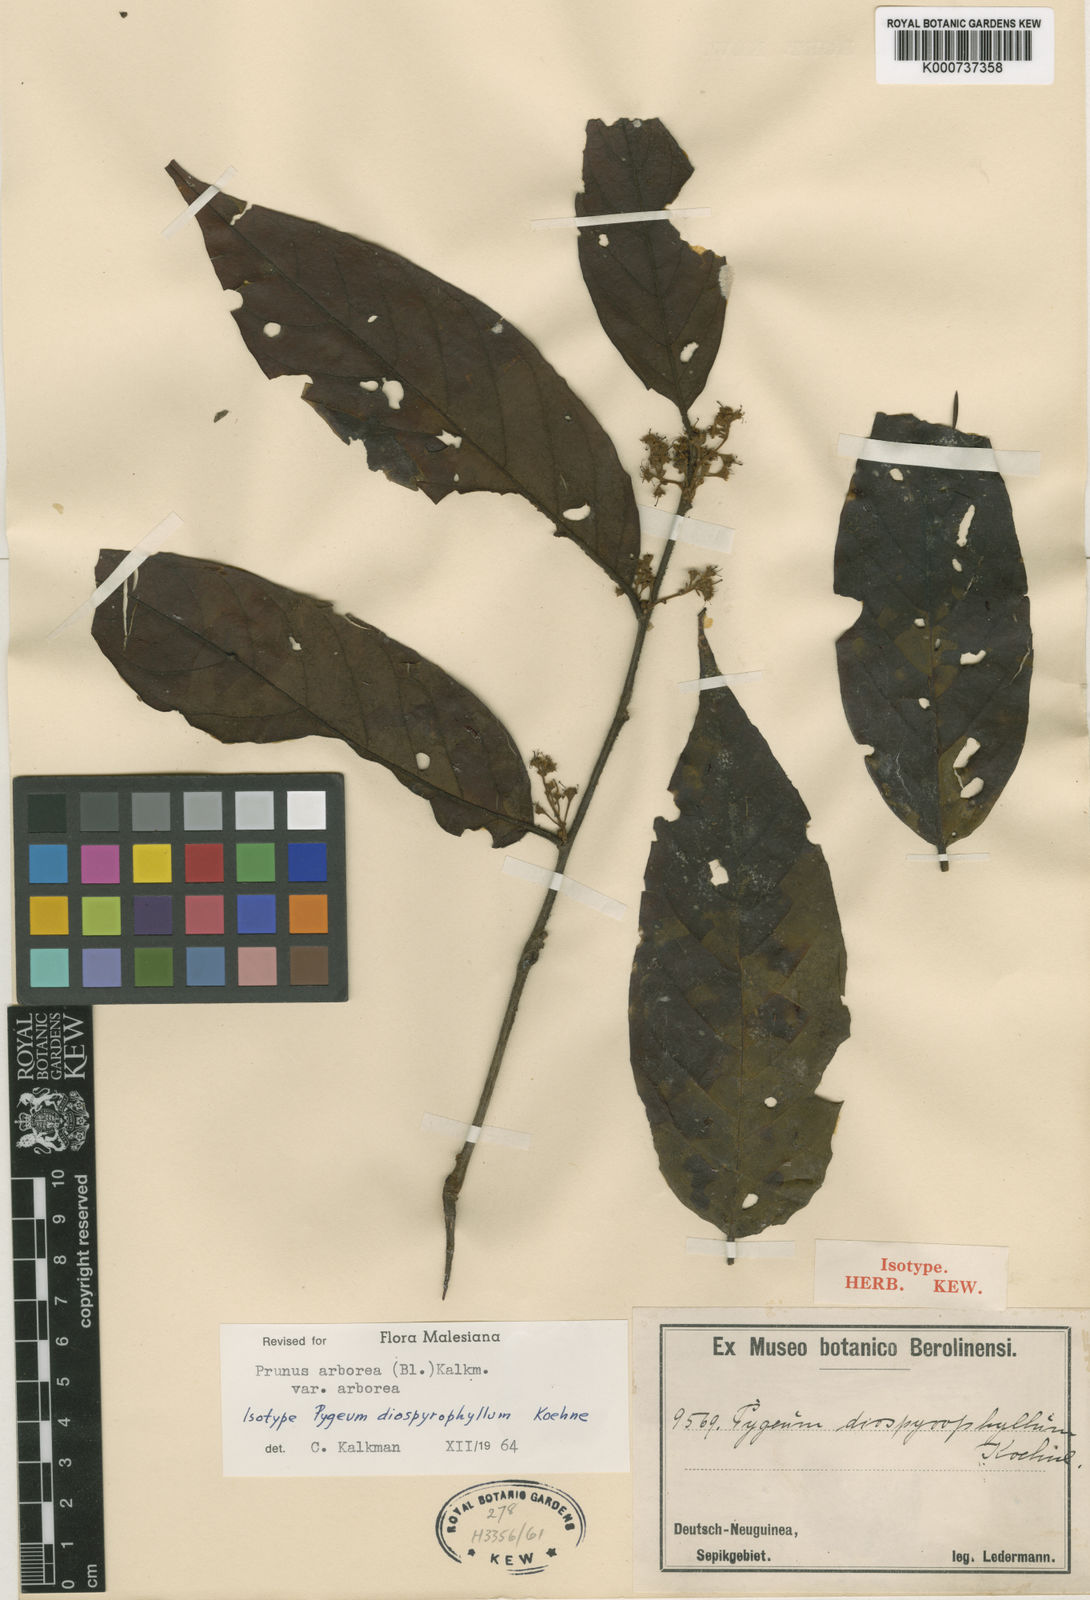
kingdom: Plantae
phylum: Tracheophyta
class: Magnoliopsida
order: Rosales
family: Rosaceae
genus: Prunus
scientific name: Prunus arborea
